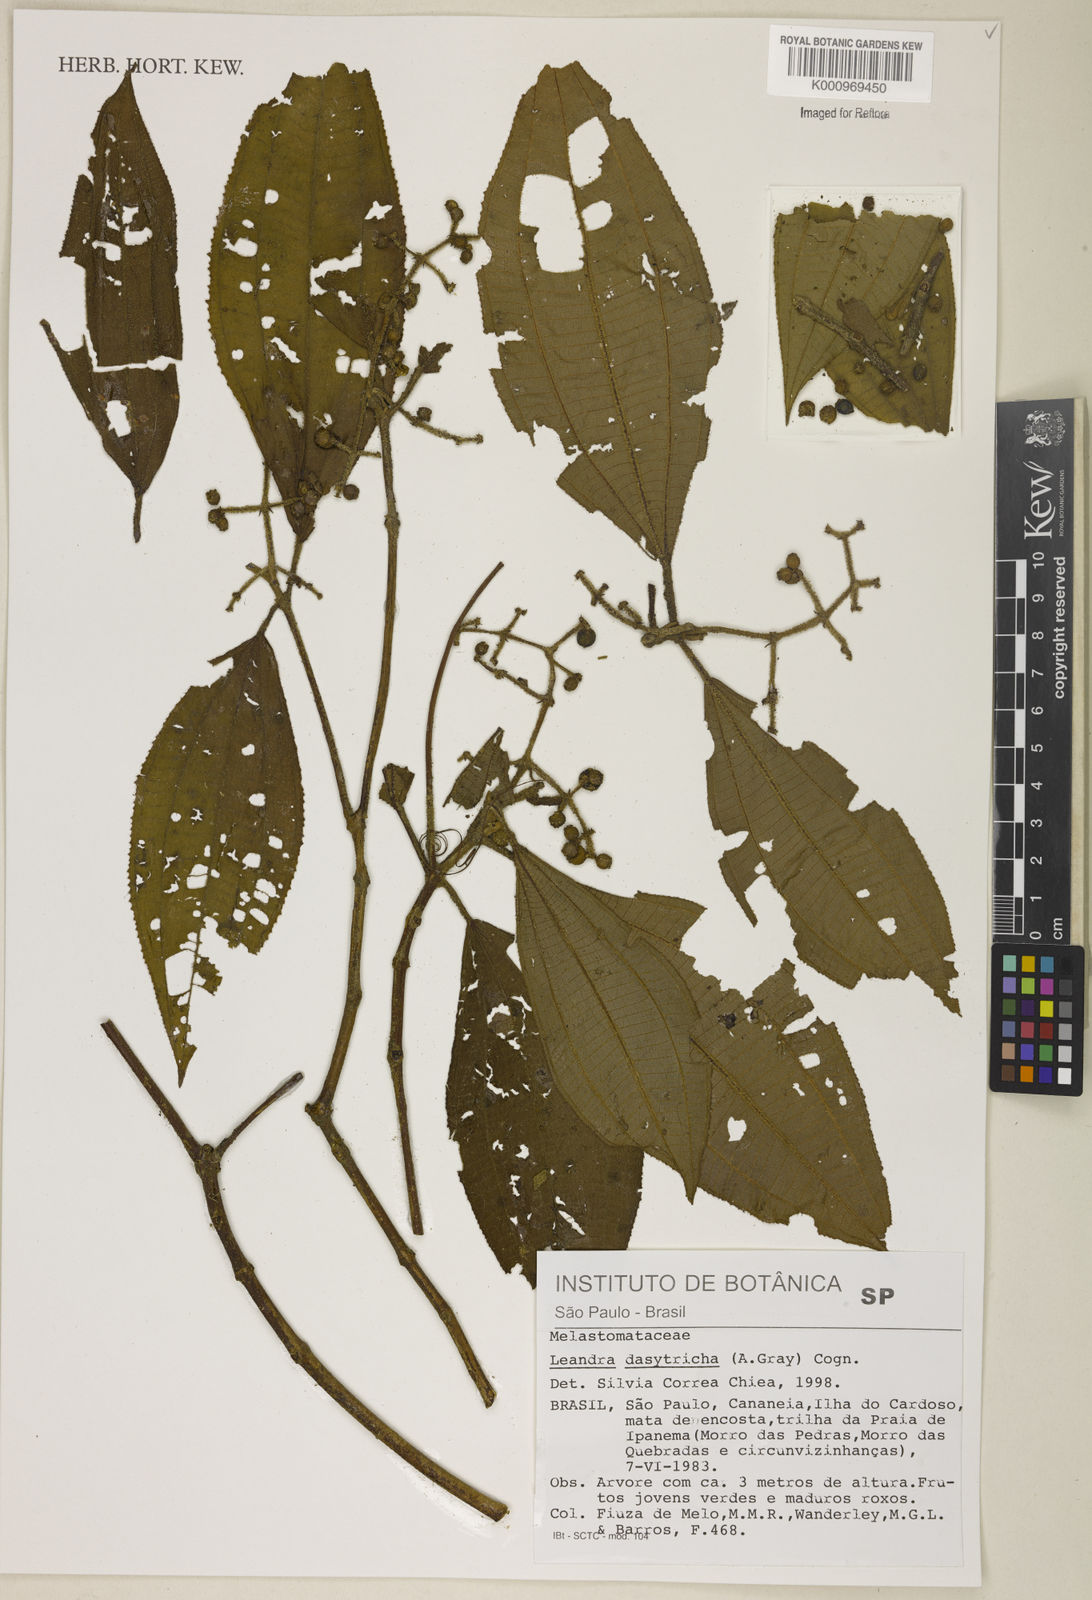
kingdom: Plantae
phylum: Tracheophyta
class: Magnoliopsida
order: Myrtales
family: Melastomataceae
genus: Miconia
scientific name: Miconia dasytricha
